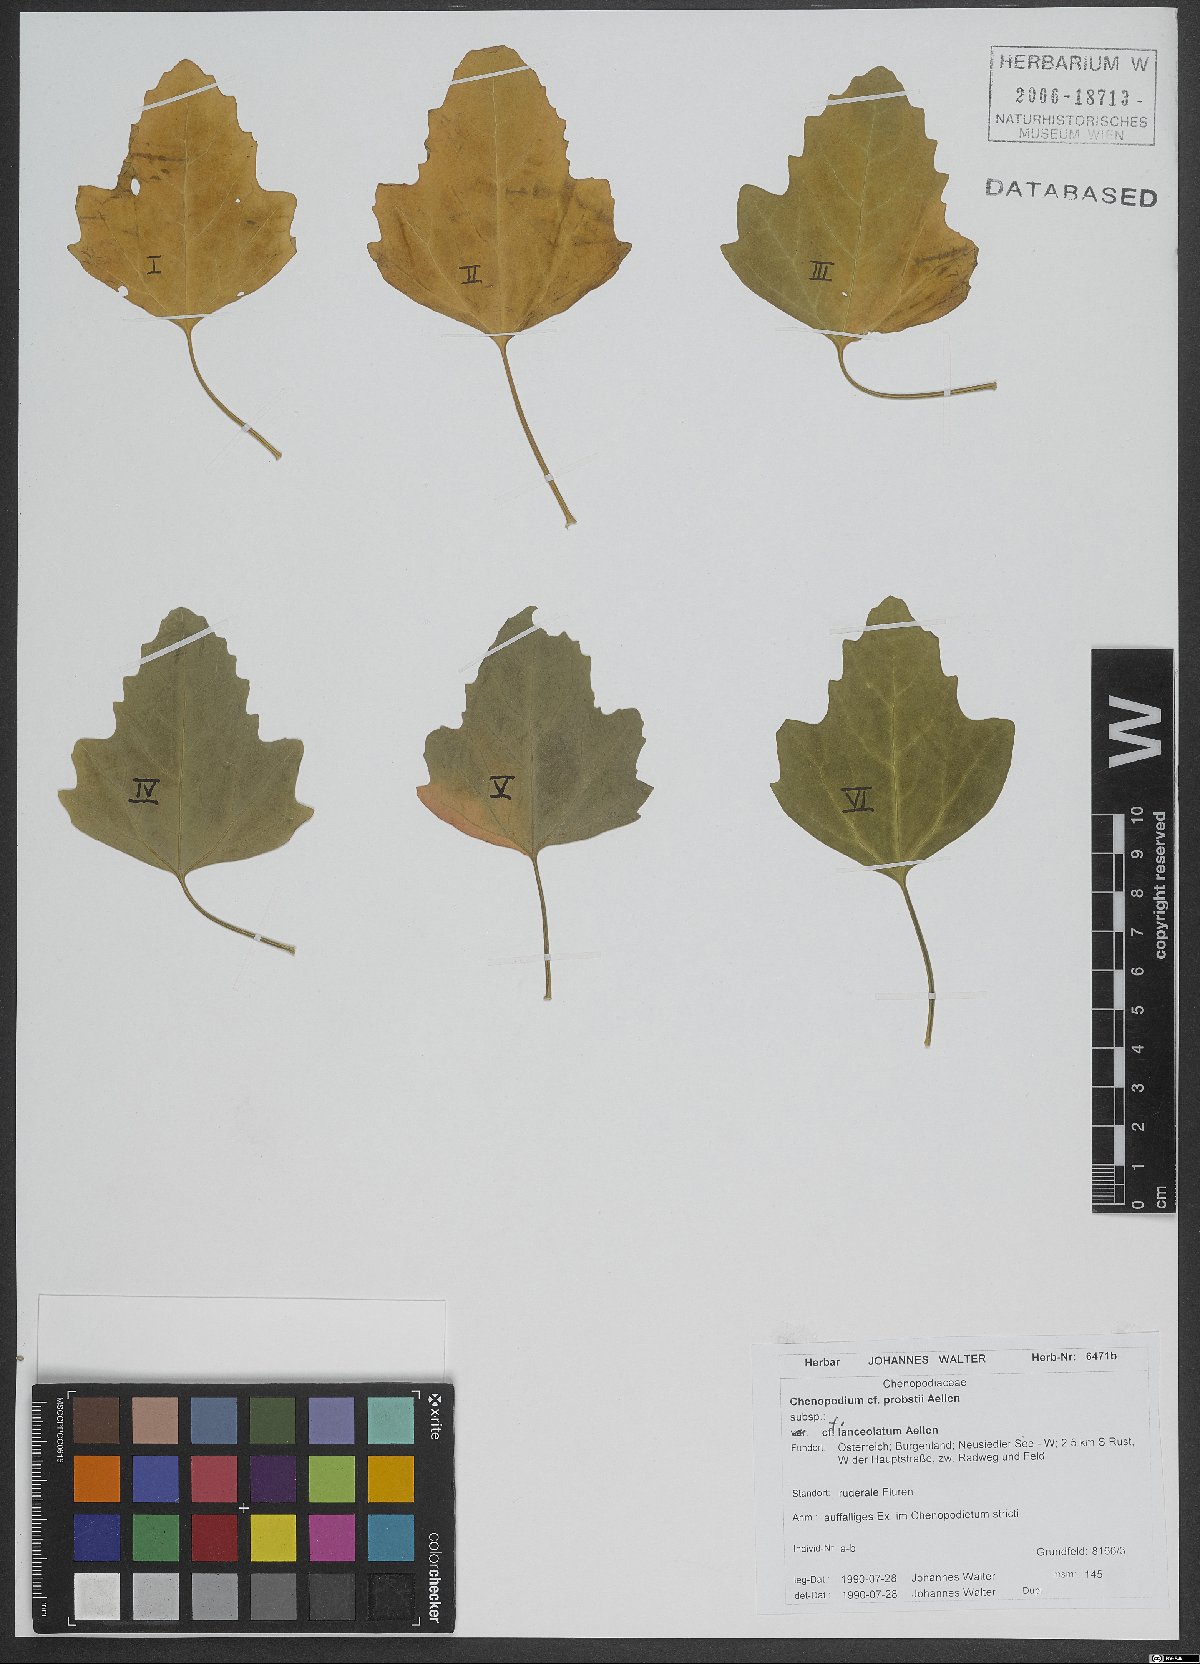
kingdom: Plantae
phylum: Tracheophyta
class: Magnoliopsida
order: Caryophyllales
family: Amaranthaceae
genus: Chenopodium
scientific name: Chenopodium probstii
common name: Probst's goosefoot
